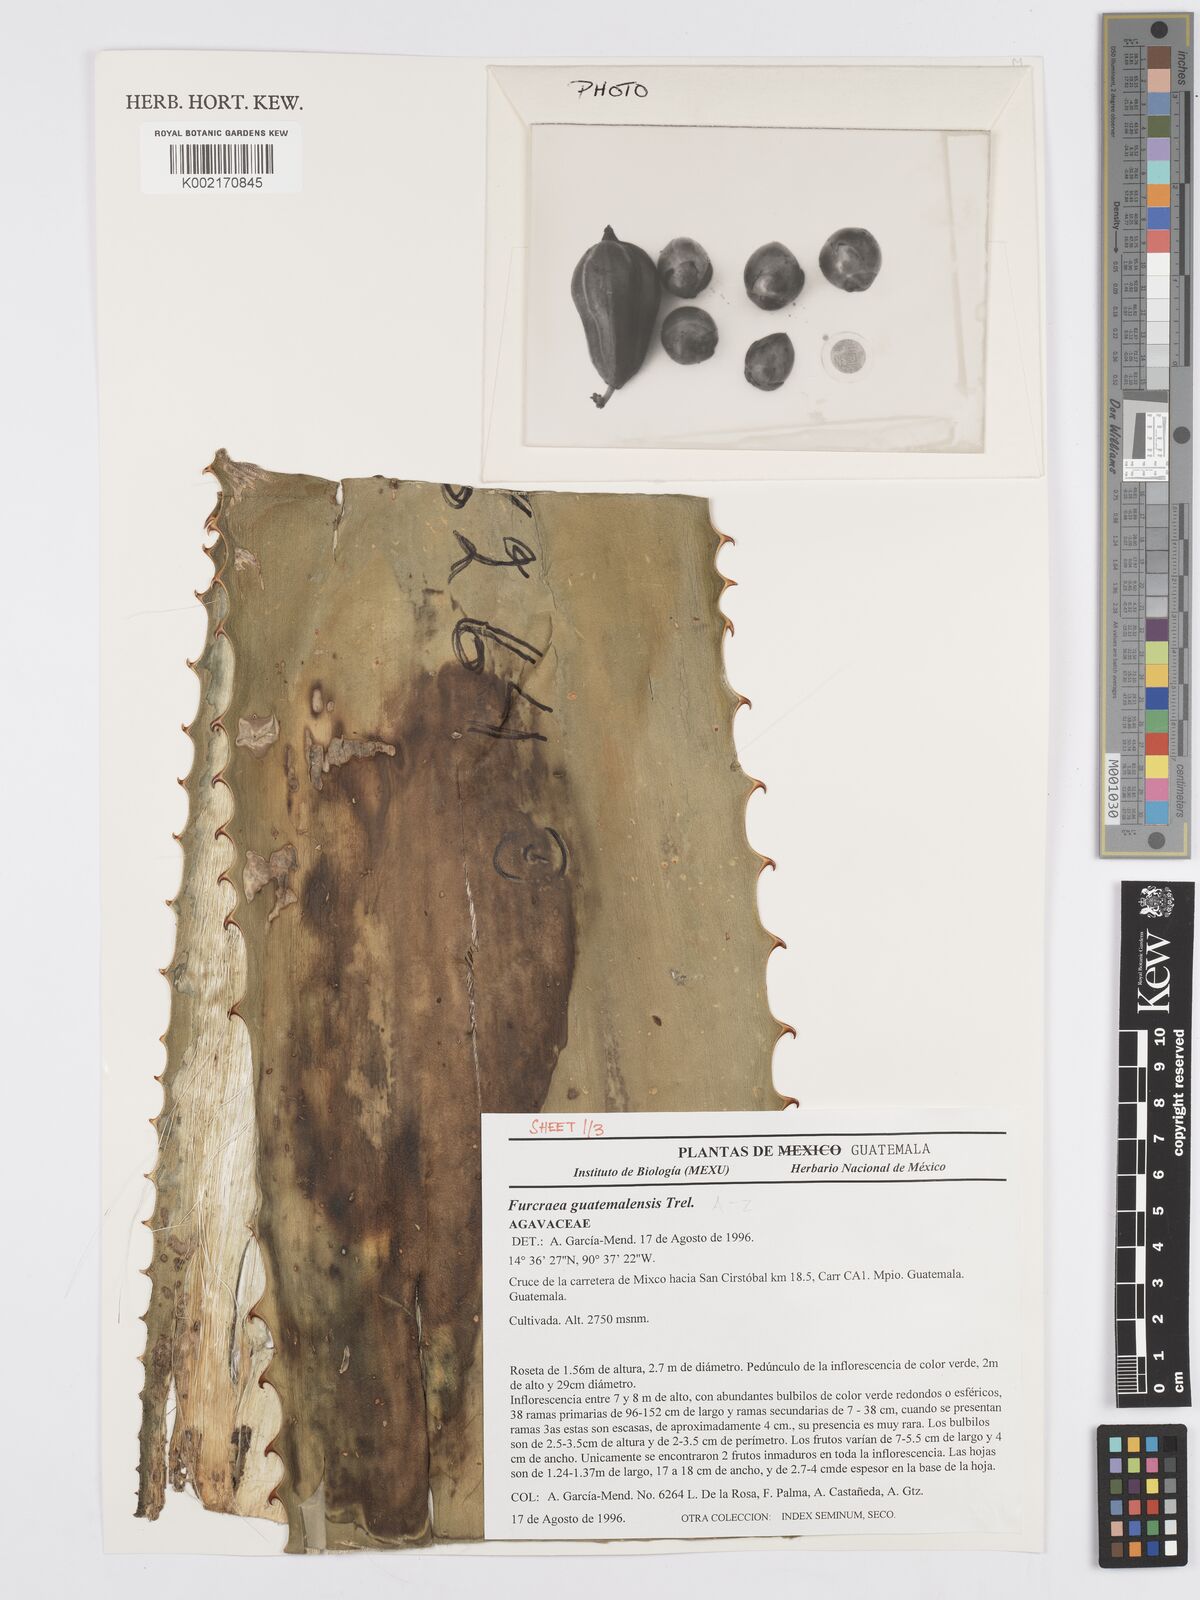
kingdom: Plantae
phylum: Tracheophyta
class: Liliopsida
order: Asparagales
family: Asparagaceae
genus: Furcraea
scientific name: Furcraea guatemalensis
